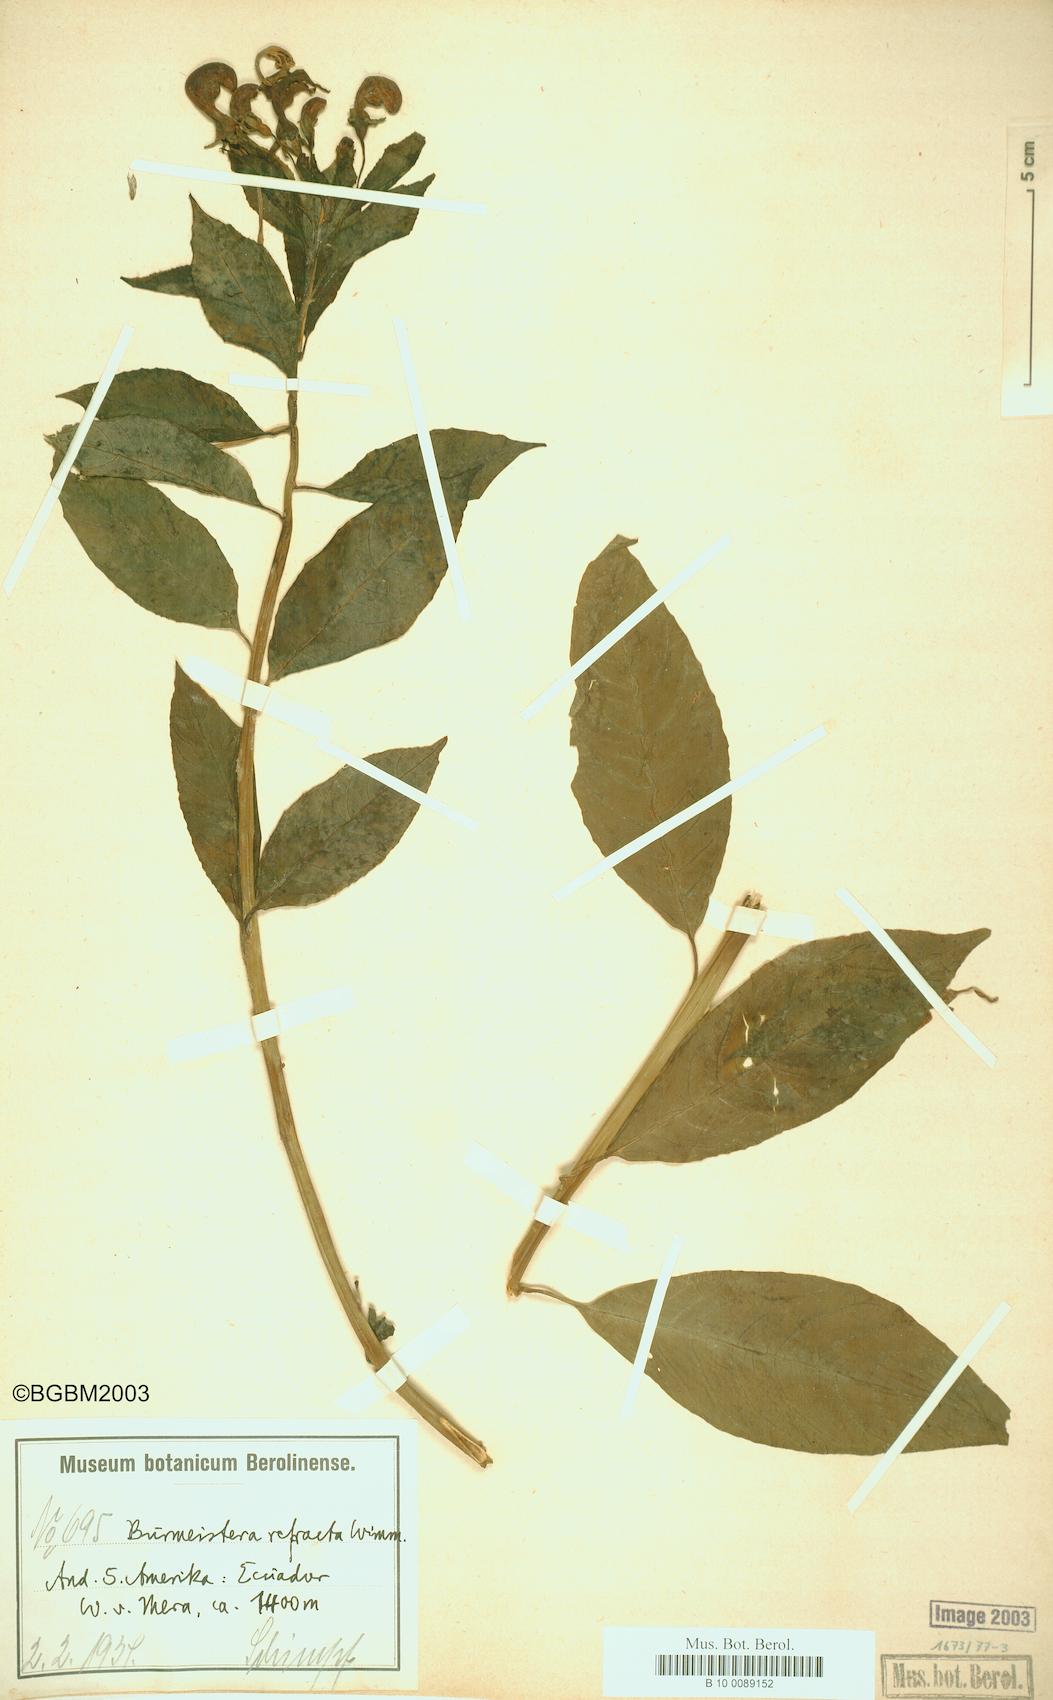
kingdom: Plantae
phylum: Tracheophyta
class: Magnoliopsida
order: Asterales
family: Campanulaceae
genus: Burmeistera
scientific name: Burmeistera refracta
